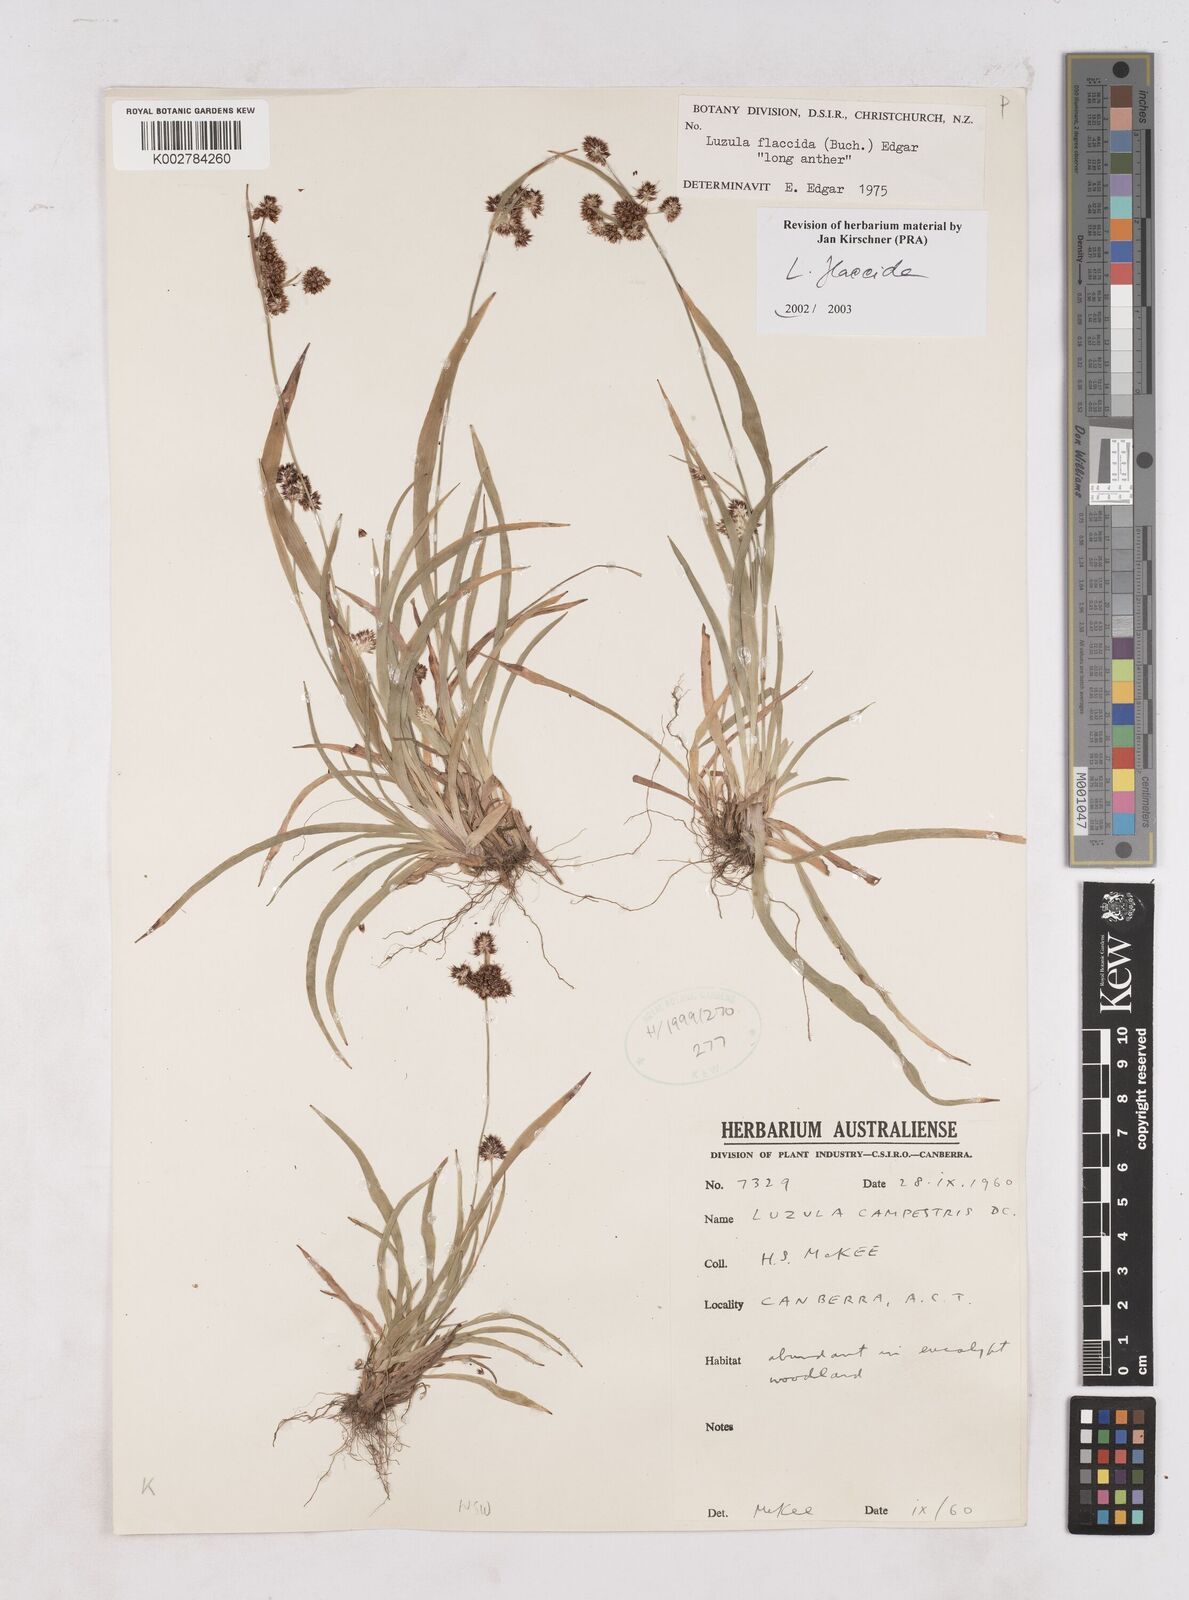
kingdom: Plantae
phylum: Tracheophyta
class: Liliopsida
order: Poales
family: Juncaceae
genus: Luzula
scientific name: Luzula flaccida
